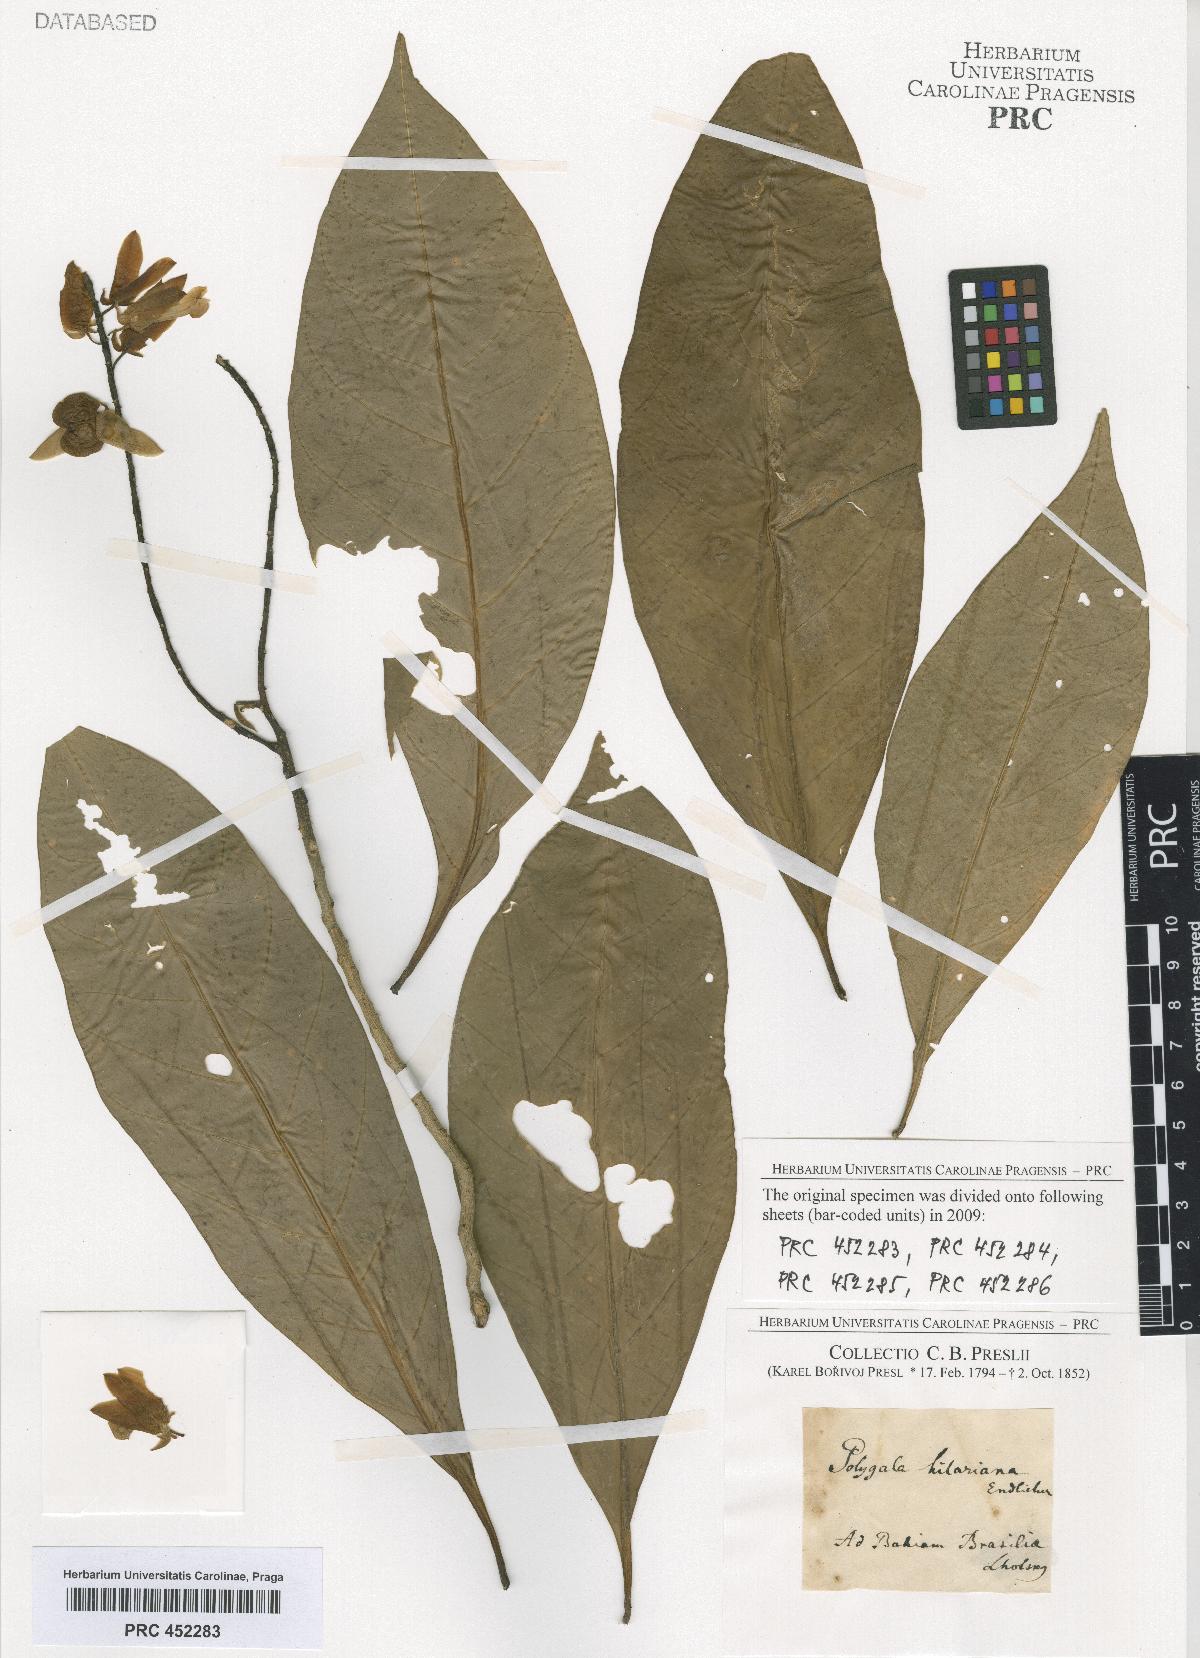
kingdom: Plantae
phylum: Tracheophyta
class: Magnoliopsida
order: Fabales
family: Polygalaceae
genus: Polygala
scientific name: Polygala
